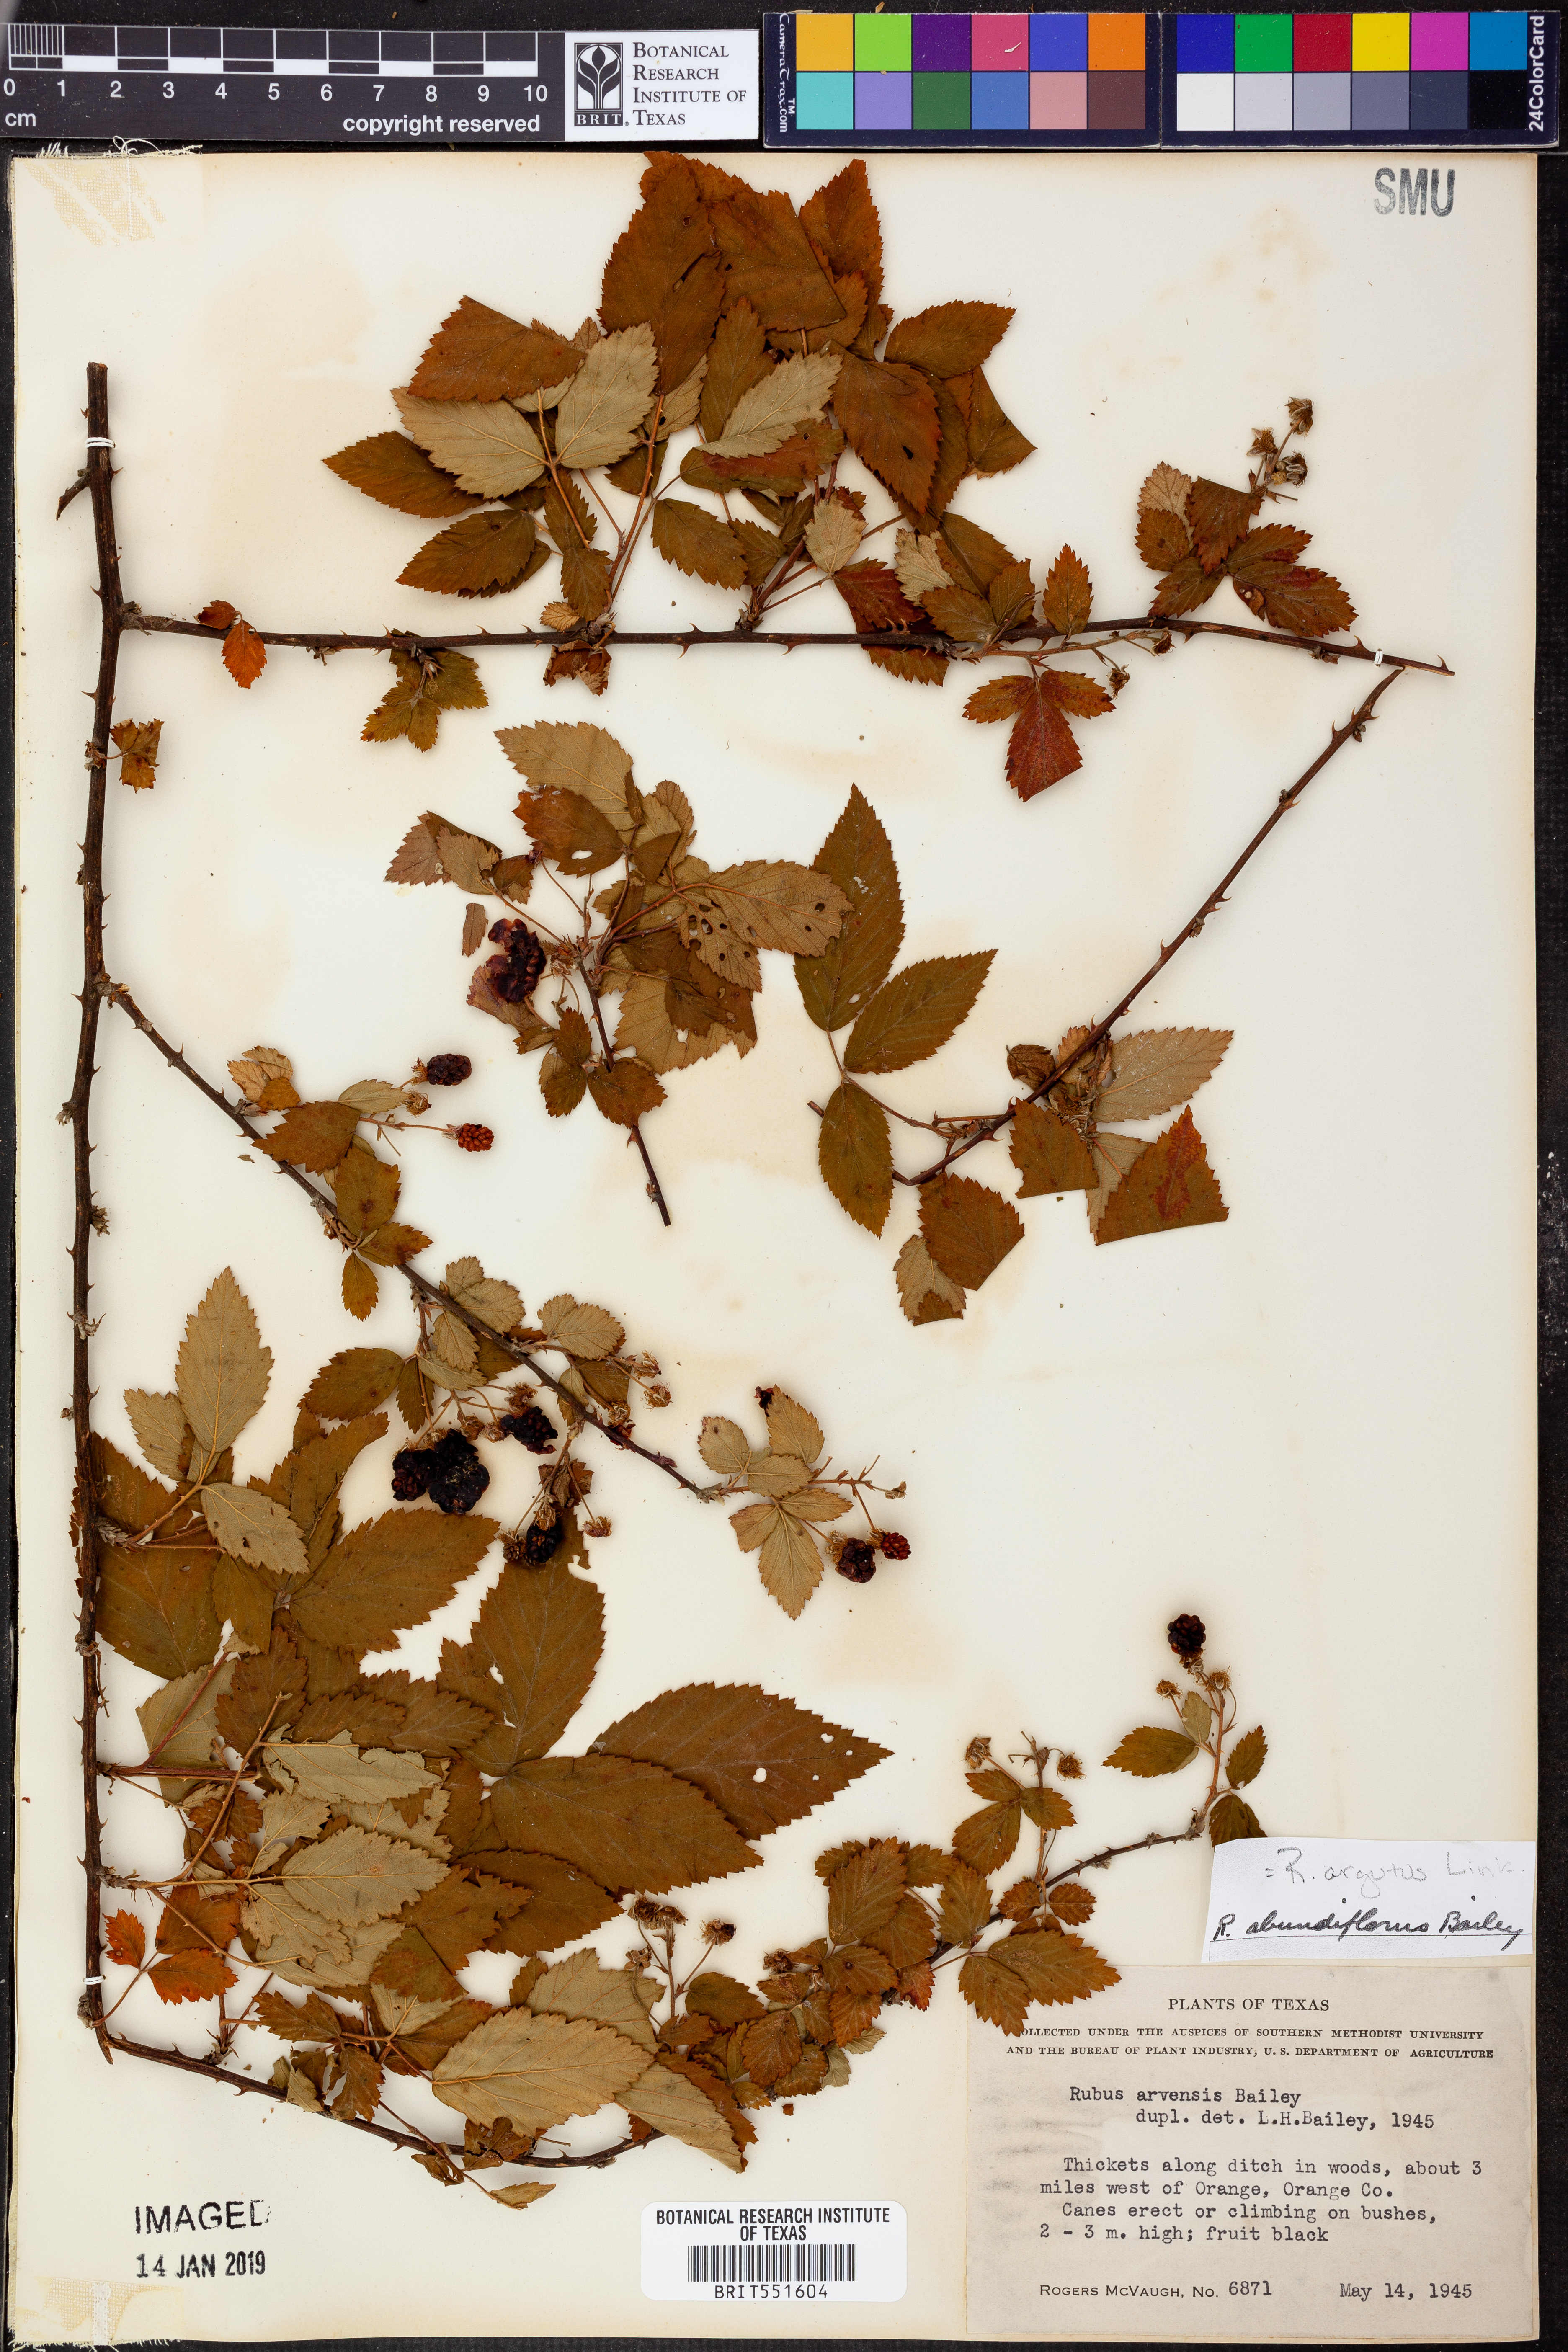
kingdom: Plantae
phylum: Tracheophyta
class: Magnoliopsida
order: Rosales
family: Rosaceae
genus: Rubus
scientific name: Rubus argutus
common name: Sawtooth blackberry
